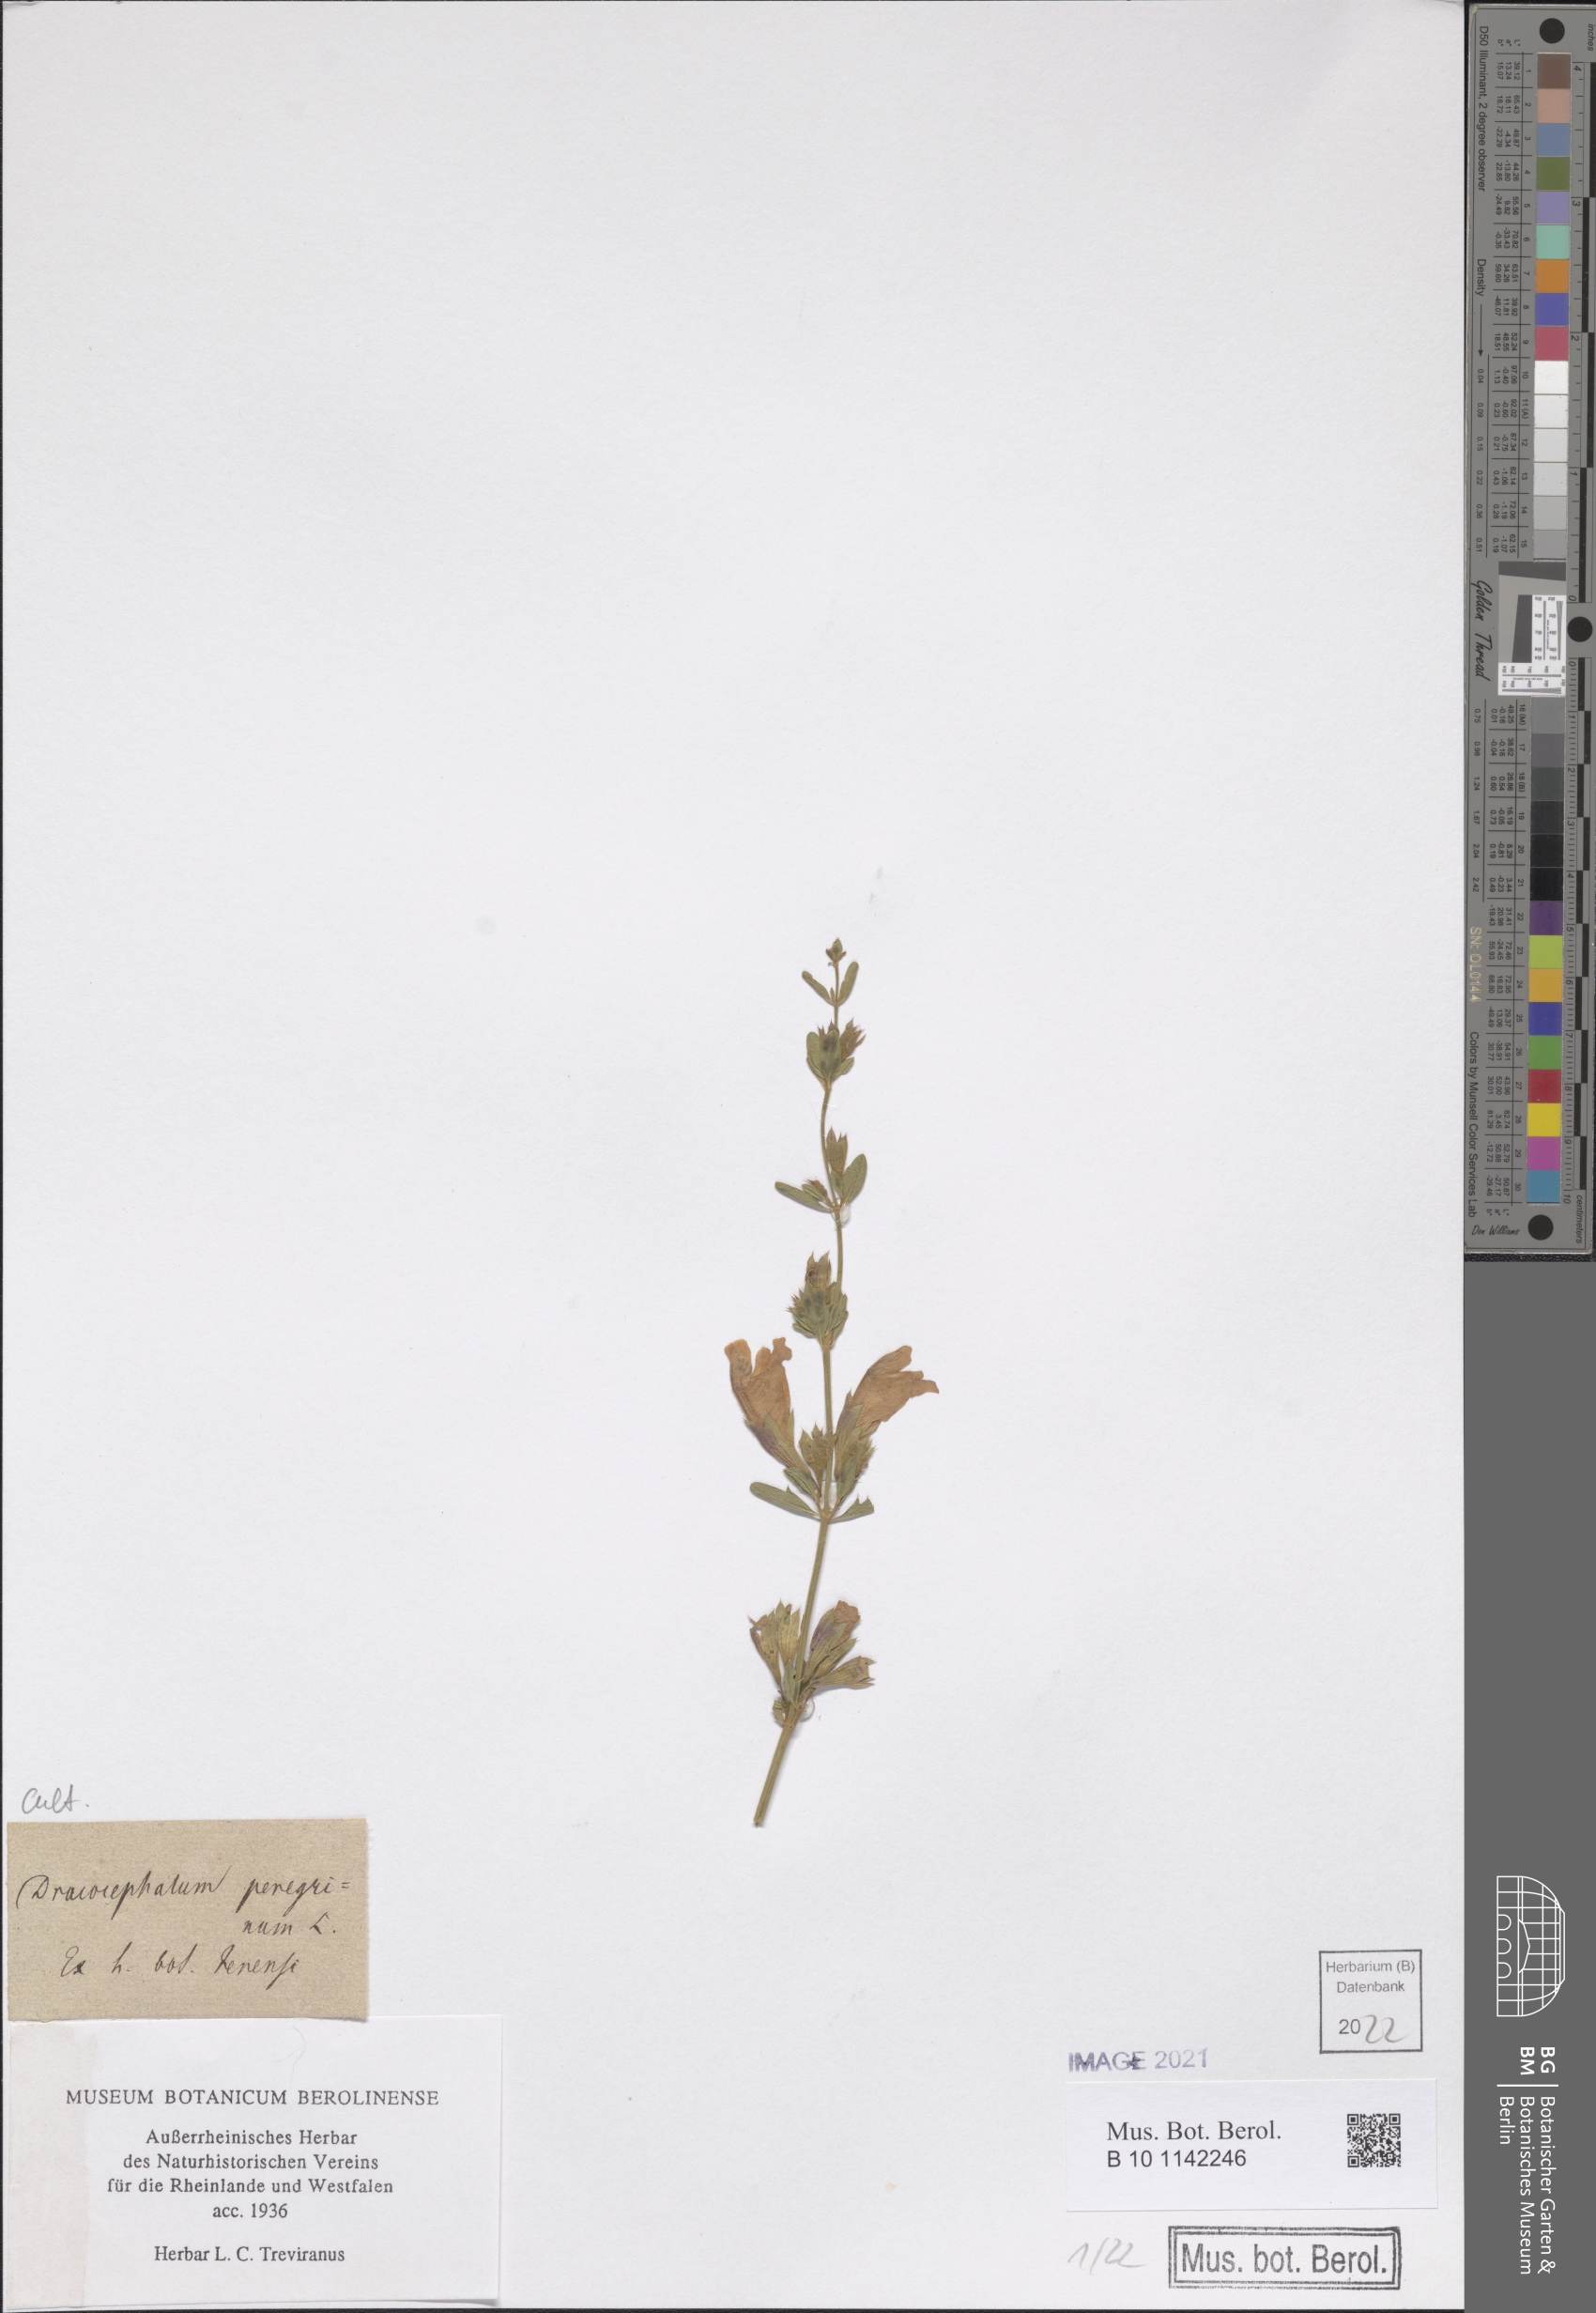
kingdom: Plantae
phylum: Tracheophyta
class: Magnoliopsida
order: Lamiales
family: Lamiaceae
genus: Dracocephalum
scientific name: Dracocephalum peregrinum
